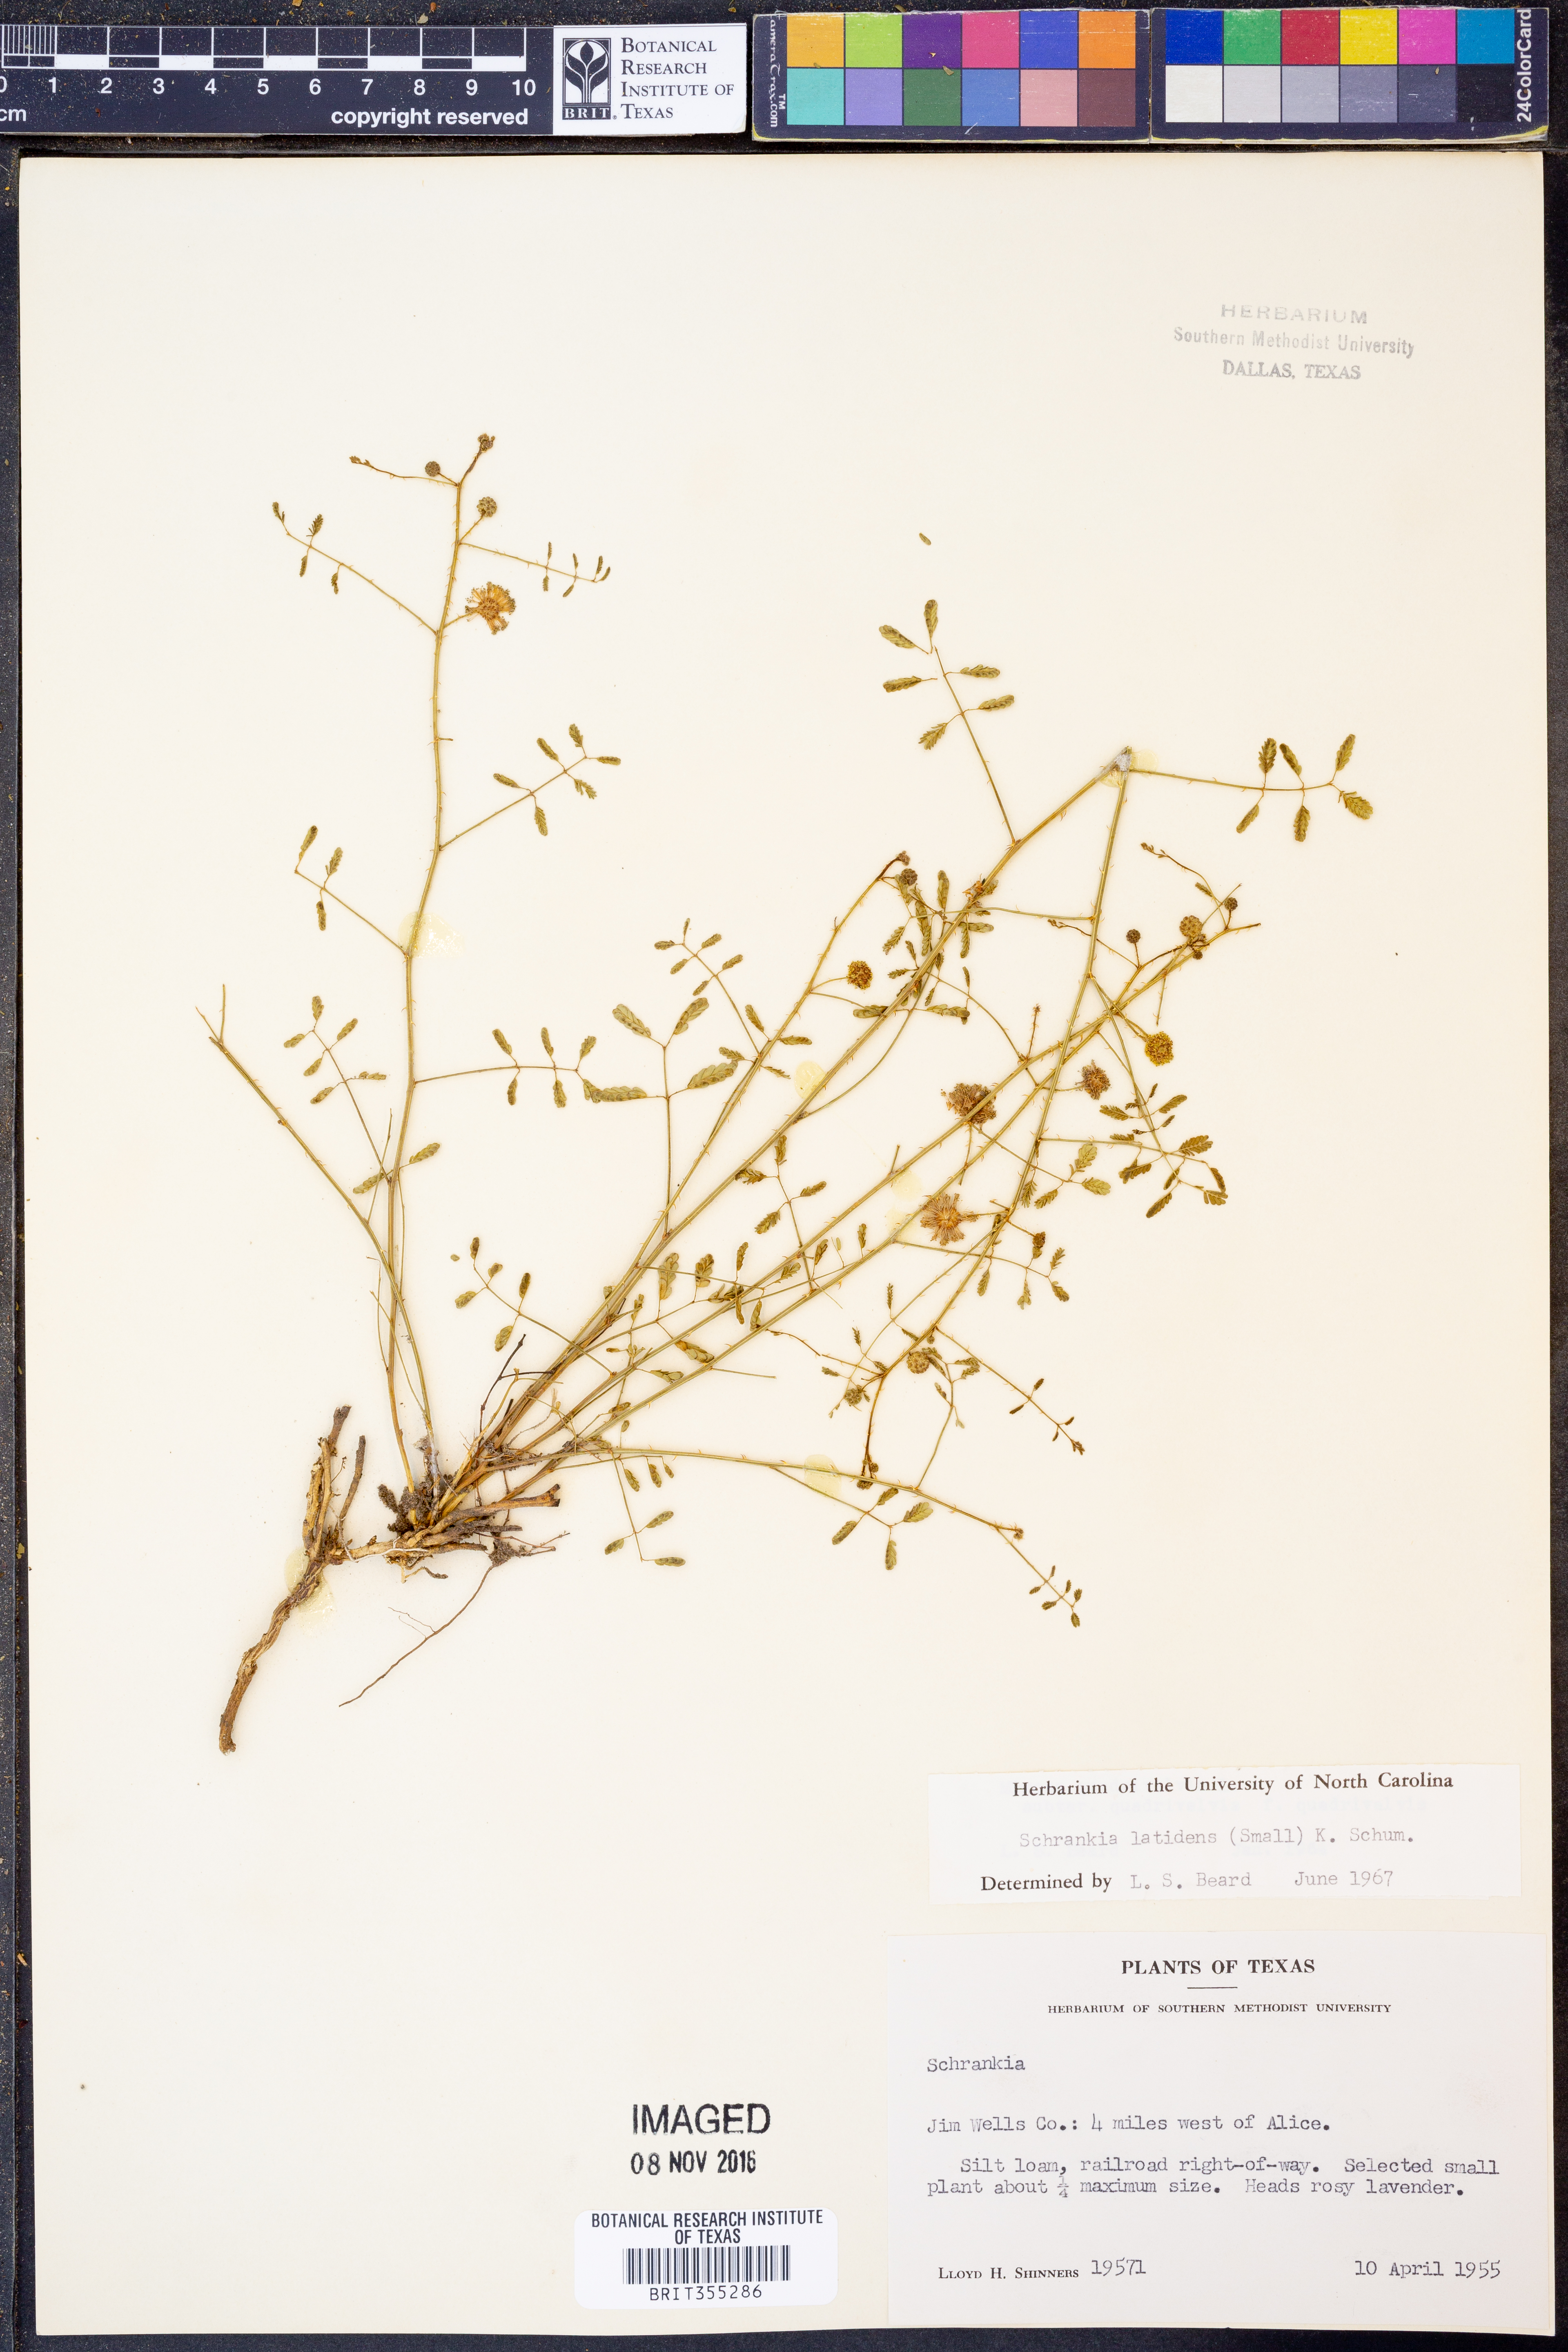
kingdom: Plantae
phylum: Tracheophyta
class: Magnoliopsida
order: Fabales
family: Fabaceae
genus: Mimosa
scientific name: Mimosa quadrivalvis
